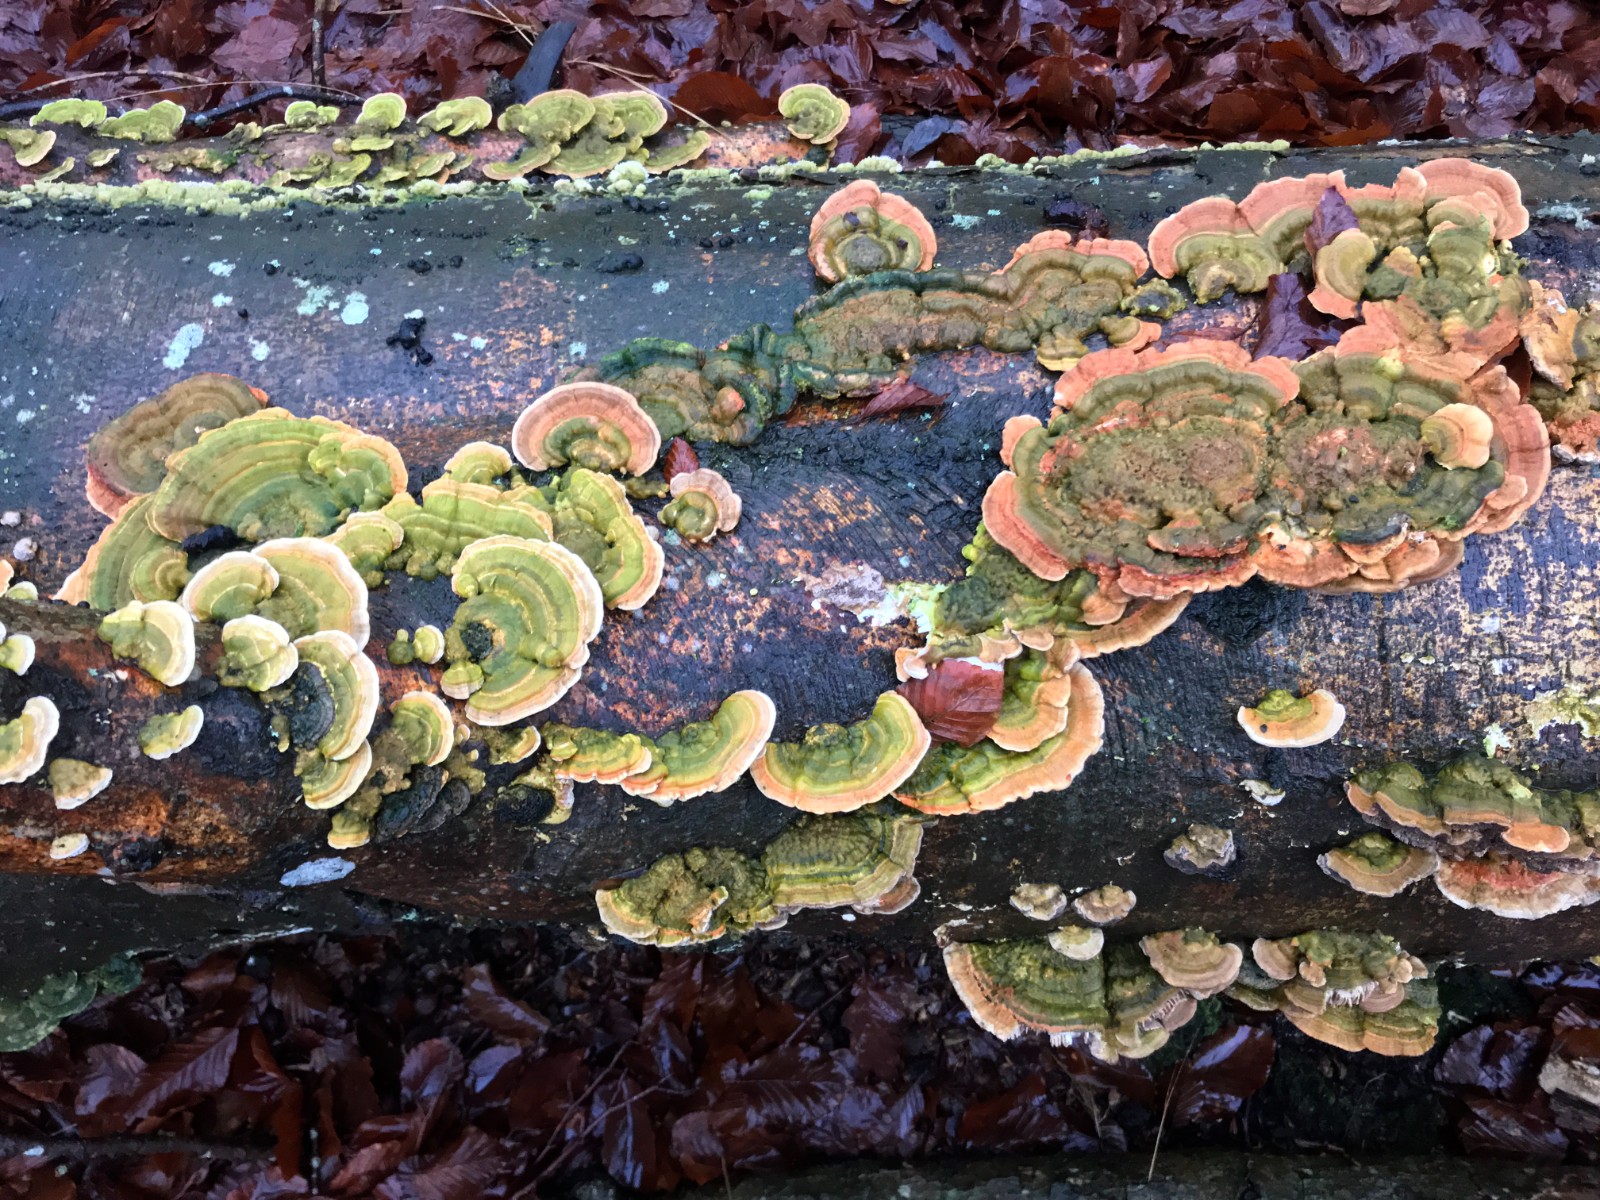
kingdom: Fungi
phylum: Basidiomycota
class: Agaricomycetes
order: Polyporales
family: Polyporaceae
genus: Lenzites
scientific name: Lenzites betulinus
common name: birke-læderporesvamp
